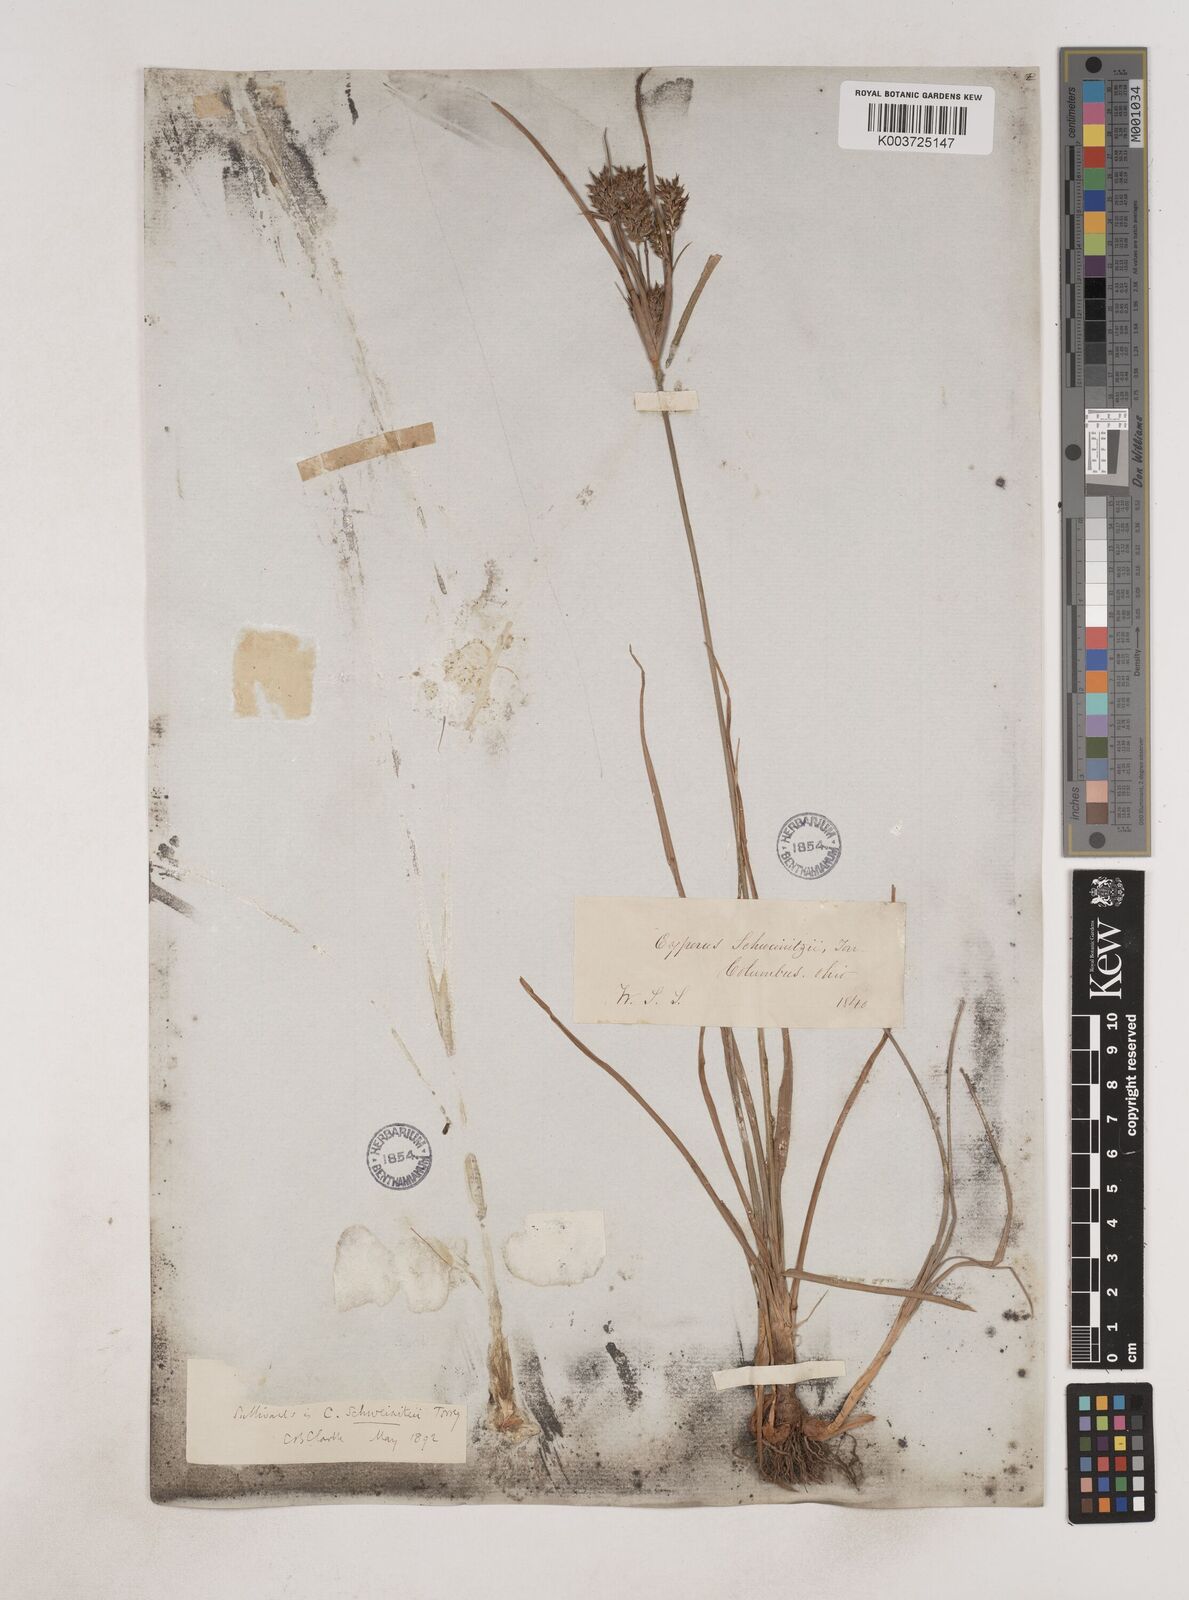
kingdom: Plantae
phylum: Tracheophyta
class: Liliopsida
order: Poales
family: Cyperaceae
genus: Cyperus
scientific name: Cyperus schweinitzii
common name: Schweinitz's cyperus
